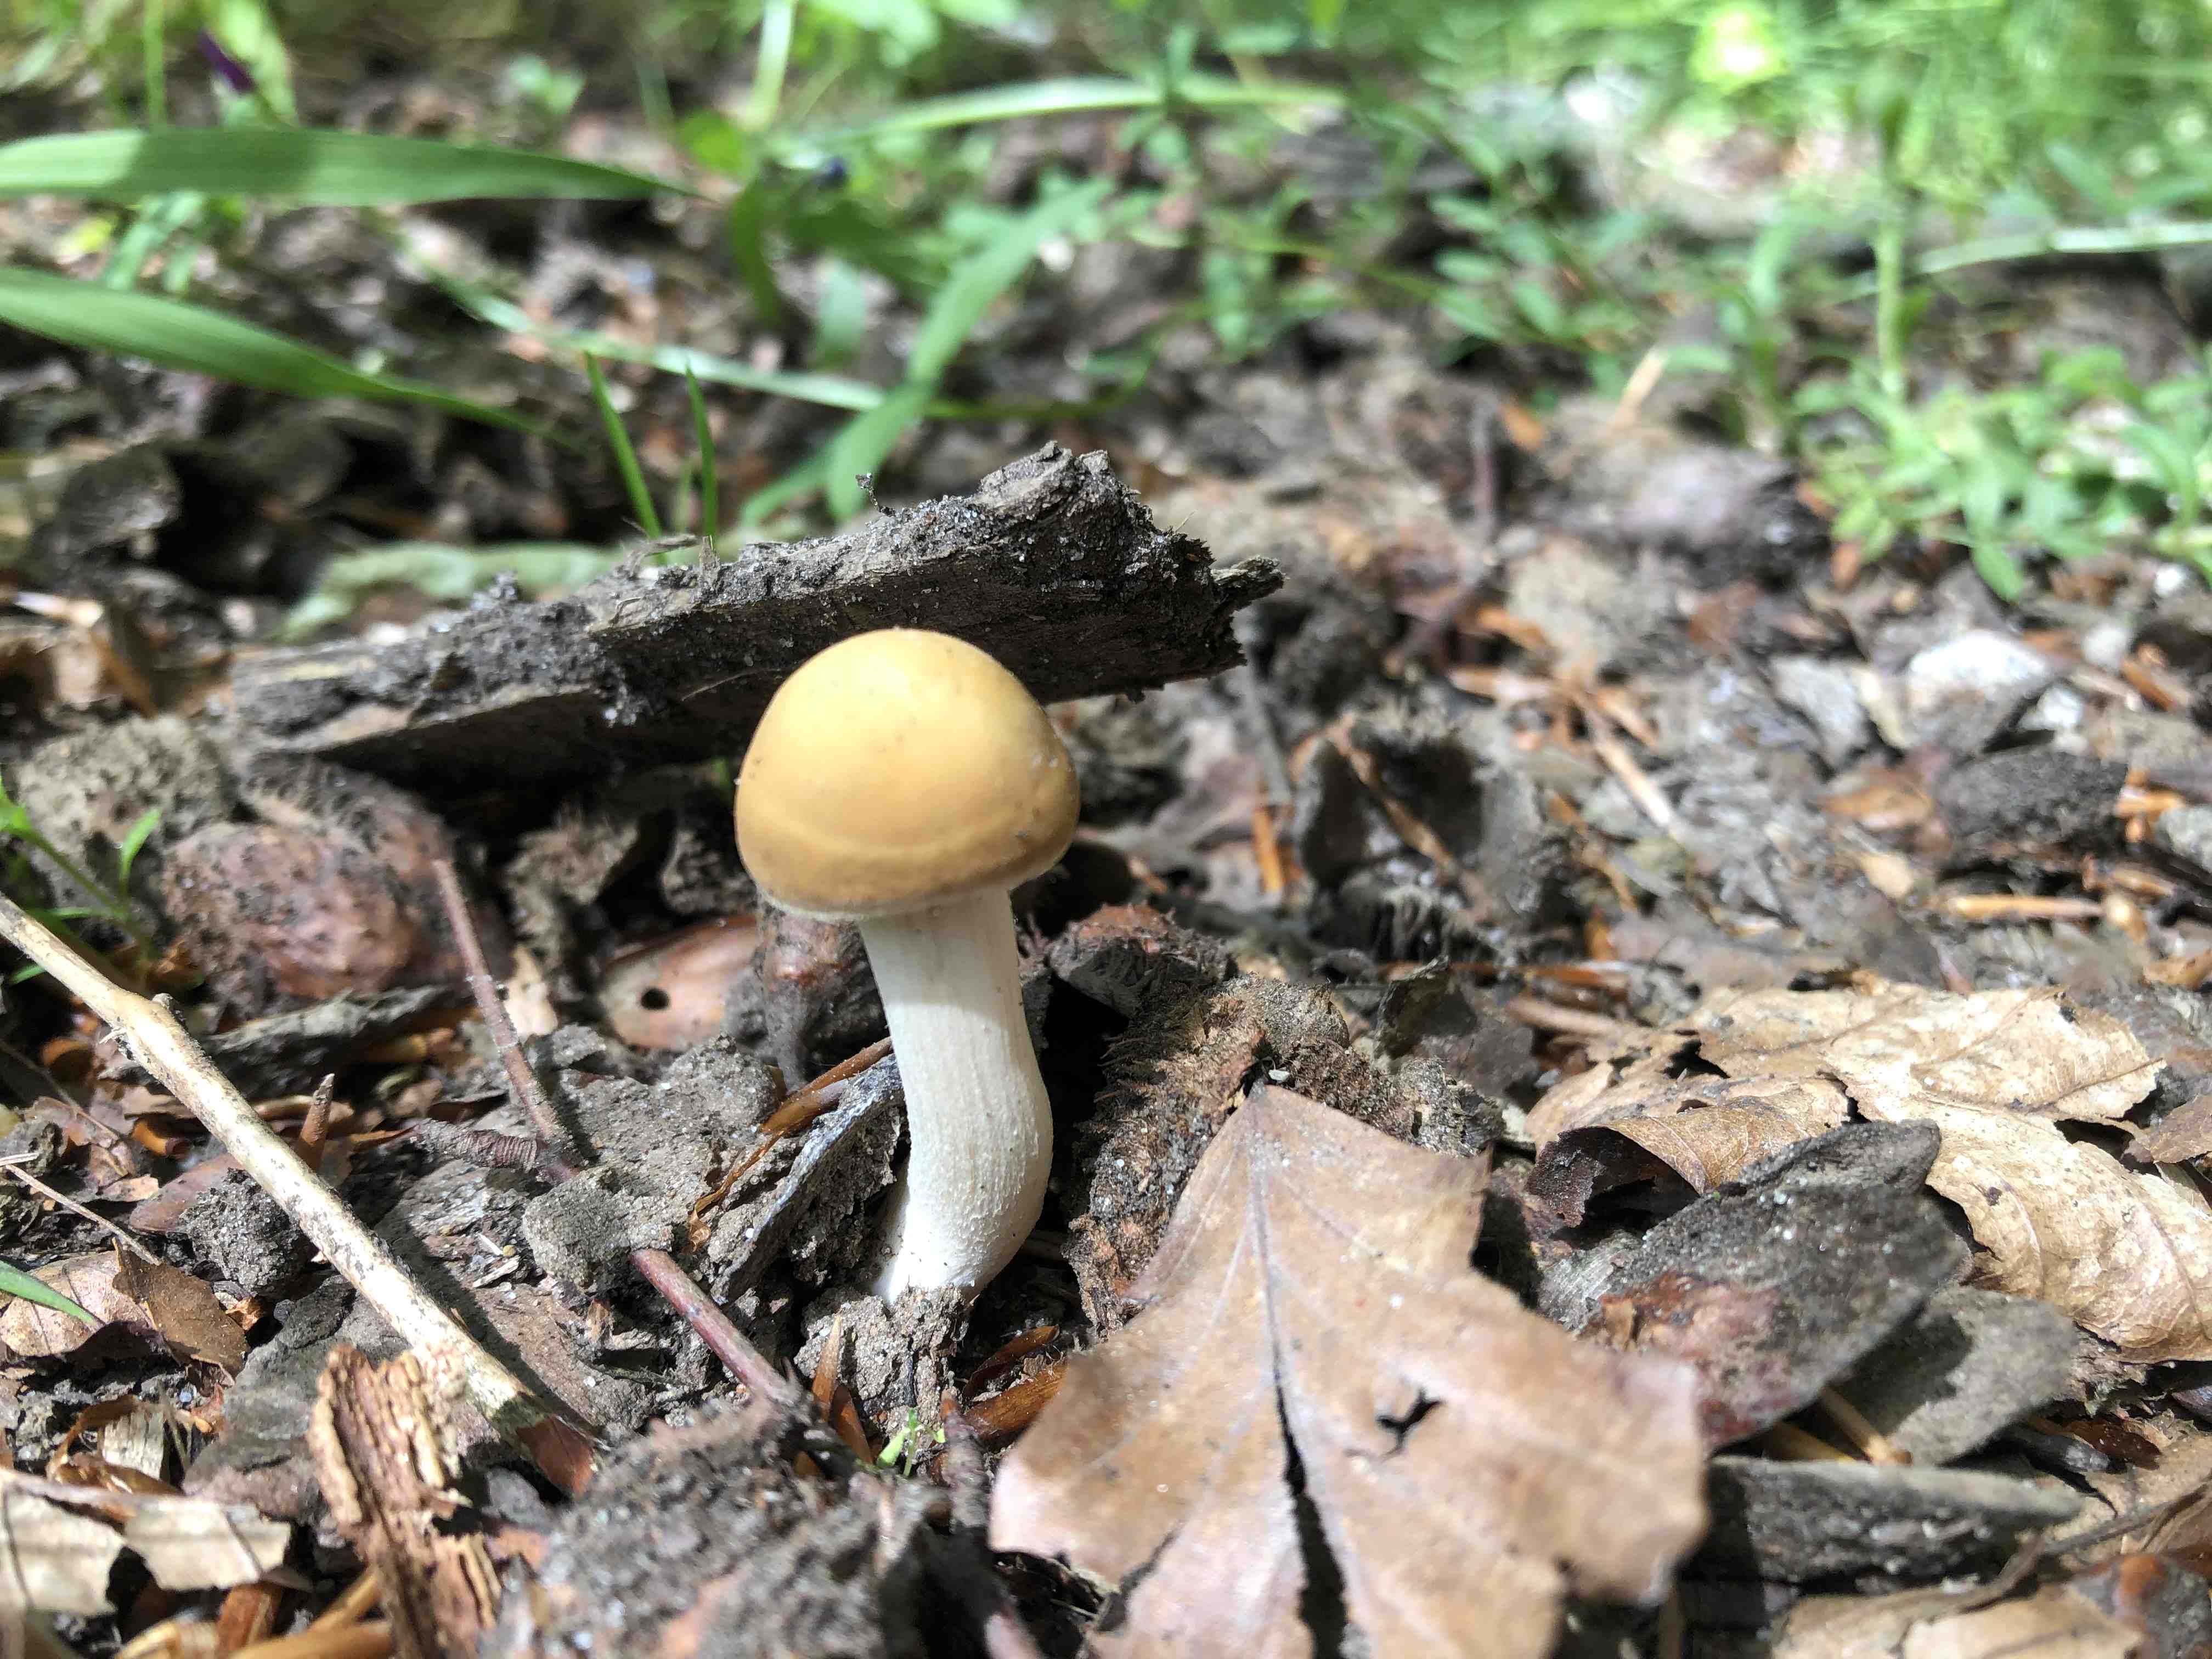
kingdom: Fungi
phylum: Basidiomycota
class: Agaricomycetes
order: Agaricales
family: Strophariaceae
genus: Agrocybe
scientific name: Agrocybe praecox
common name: tidlig agerhat
